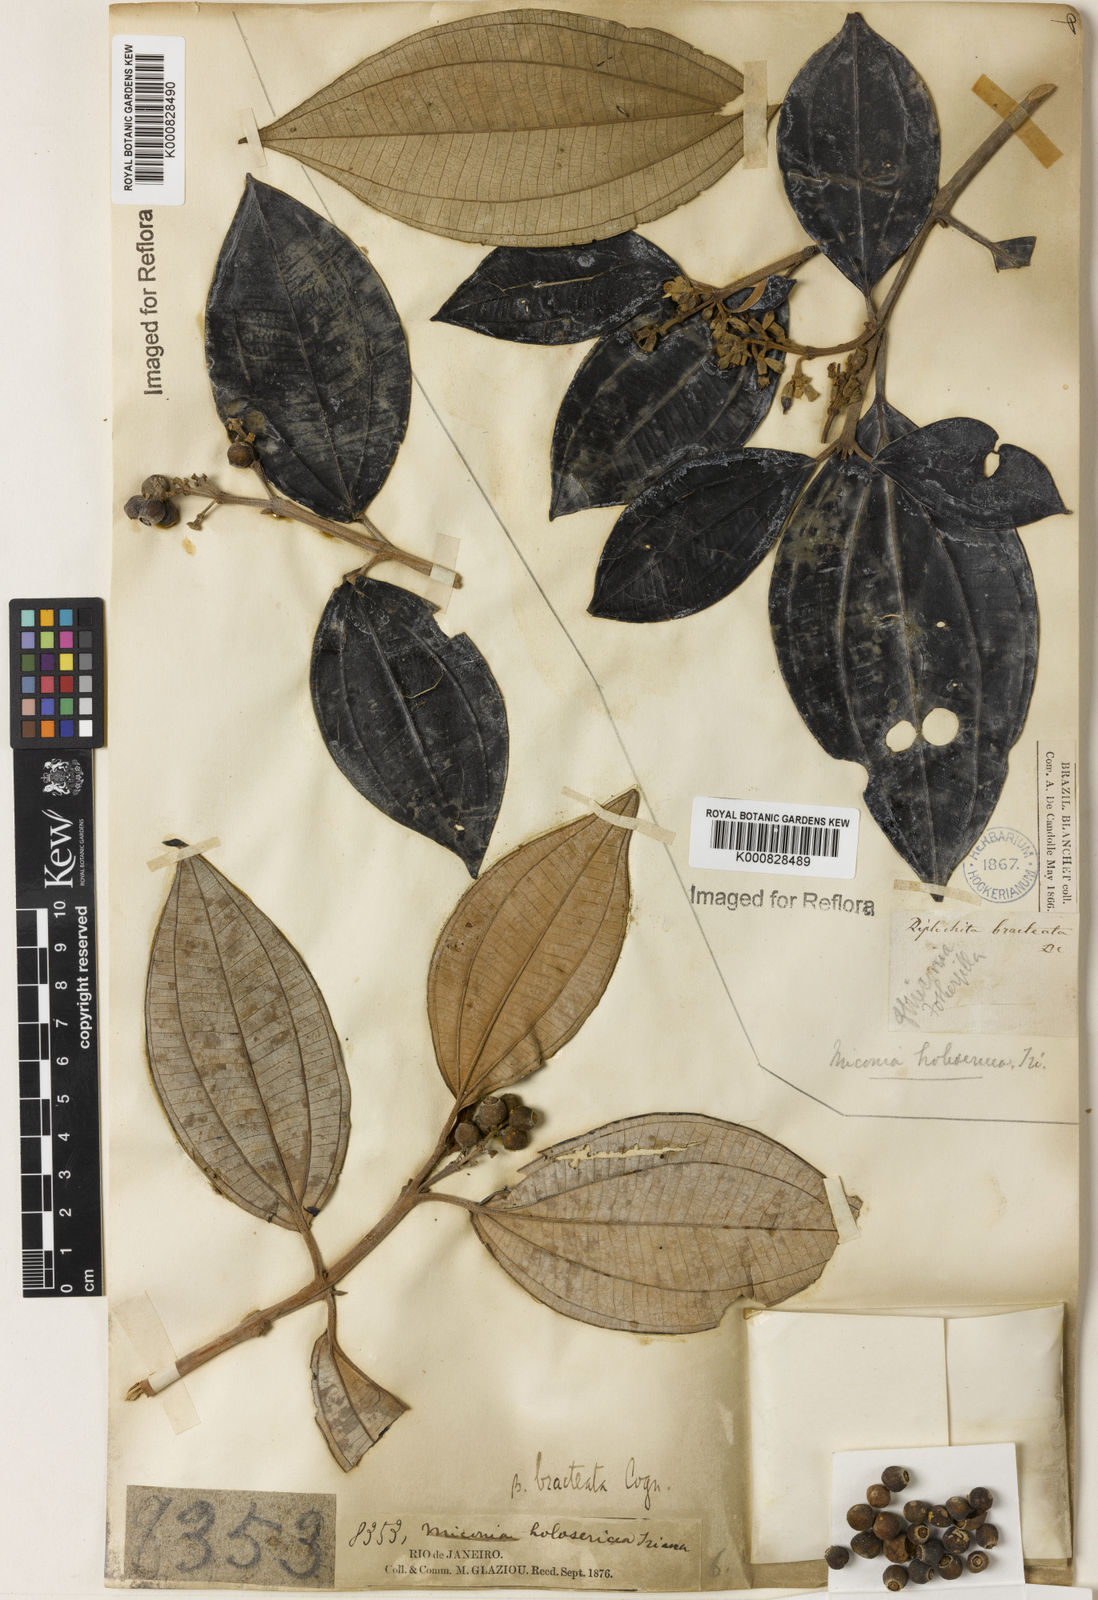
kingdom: Plantae
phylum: Tracheophyta
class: Magnoliopsida
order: Myrtales
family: Melastomataceae
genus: Miconia
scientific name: Miconia holosericea
